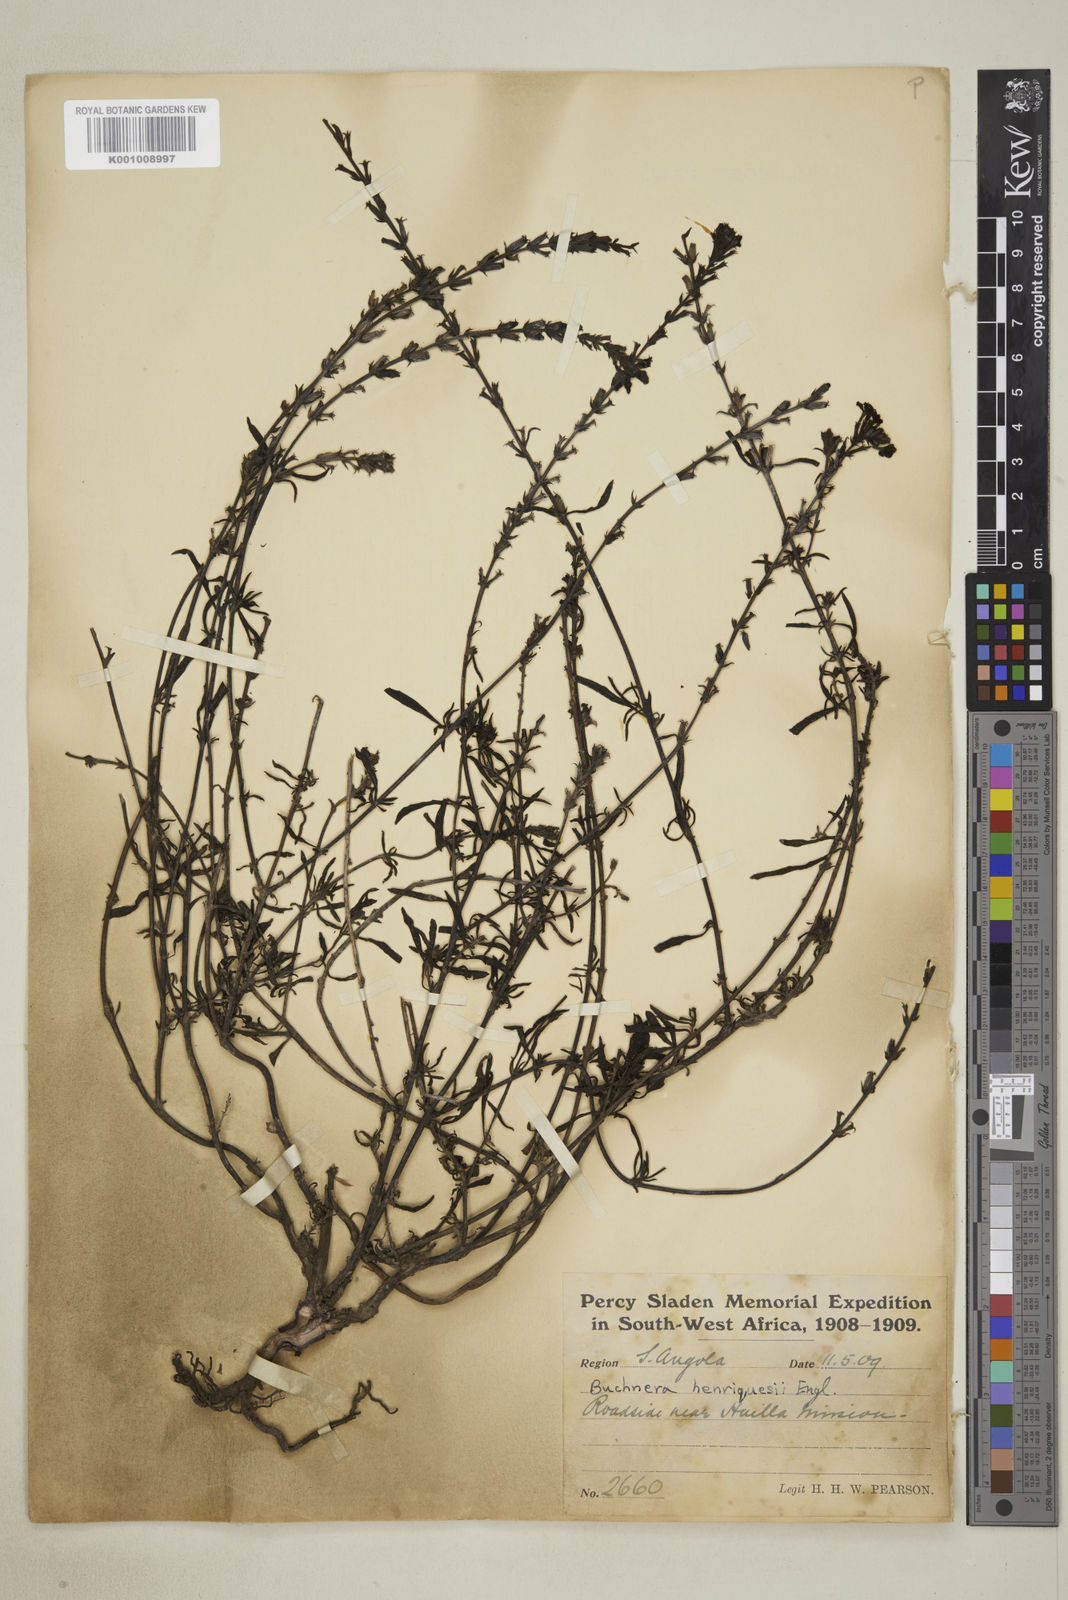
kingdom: Plantae
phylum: Tracheophyta
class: Magnoliopsida
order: Lamiales
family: Orobanchaceae
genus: Buchnera
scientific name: Buchnera henriquesii
